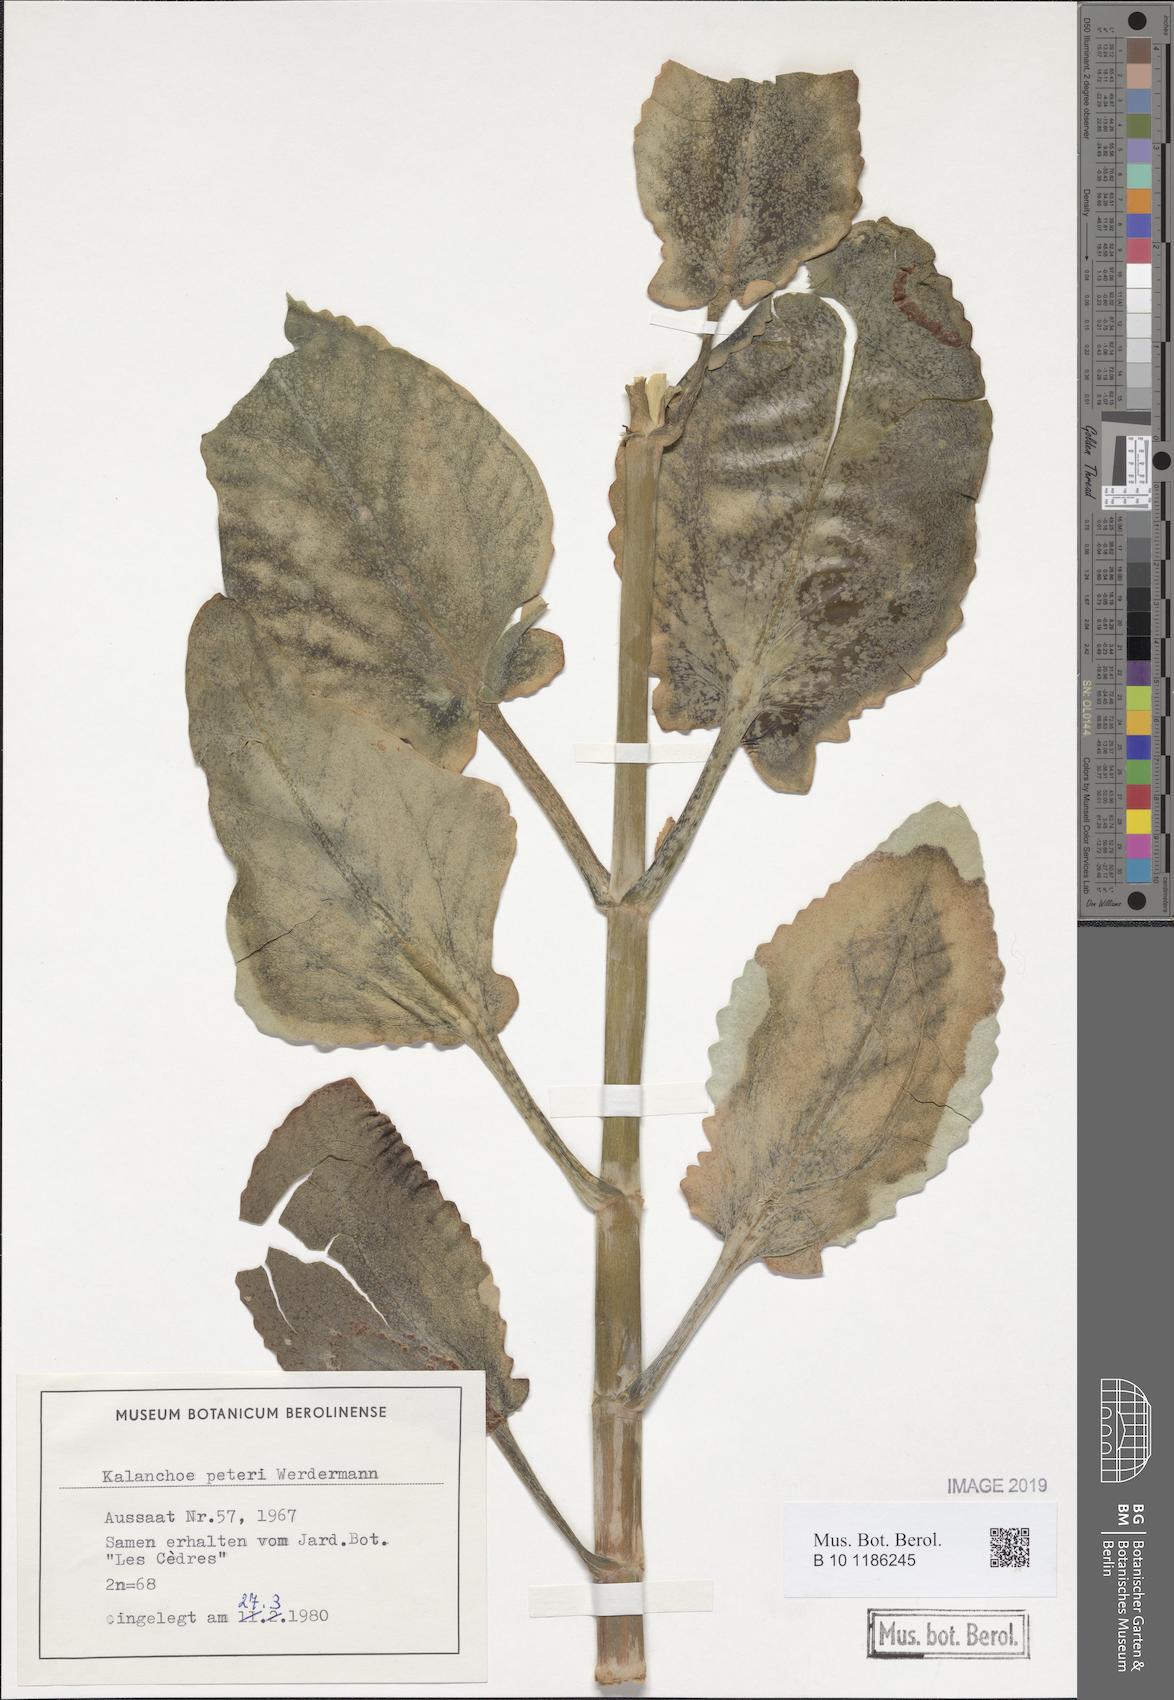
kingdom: Plantae
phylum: Tracheophyta
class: Magnoliopsida
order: Saxifragales
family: Crassulaceae
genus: Kalanchoe
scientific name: Kalanchoe peteri
